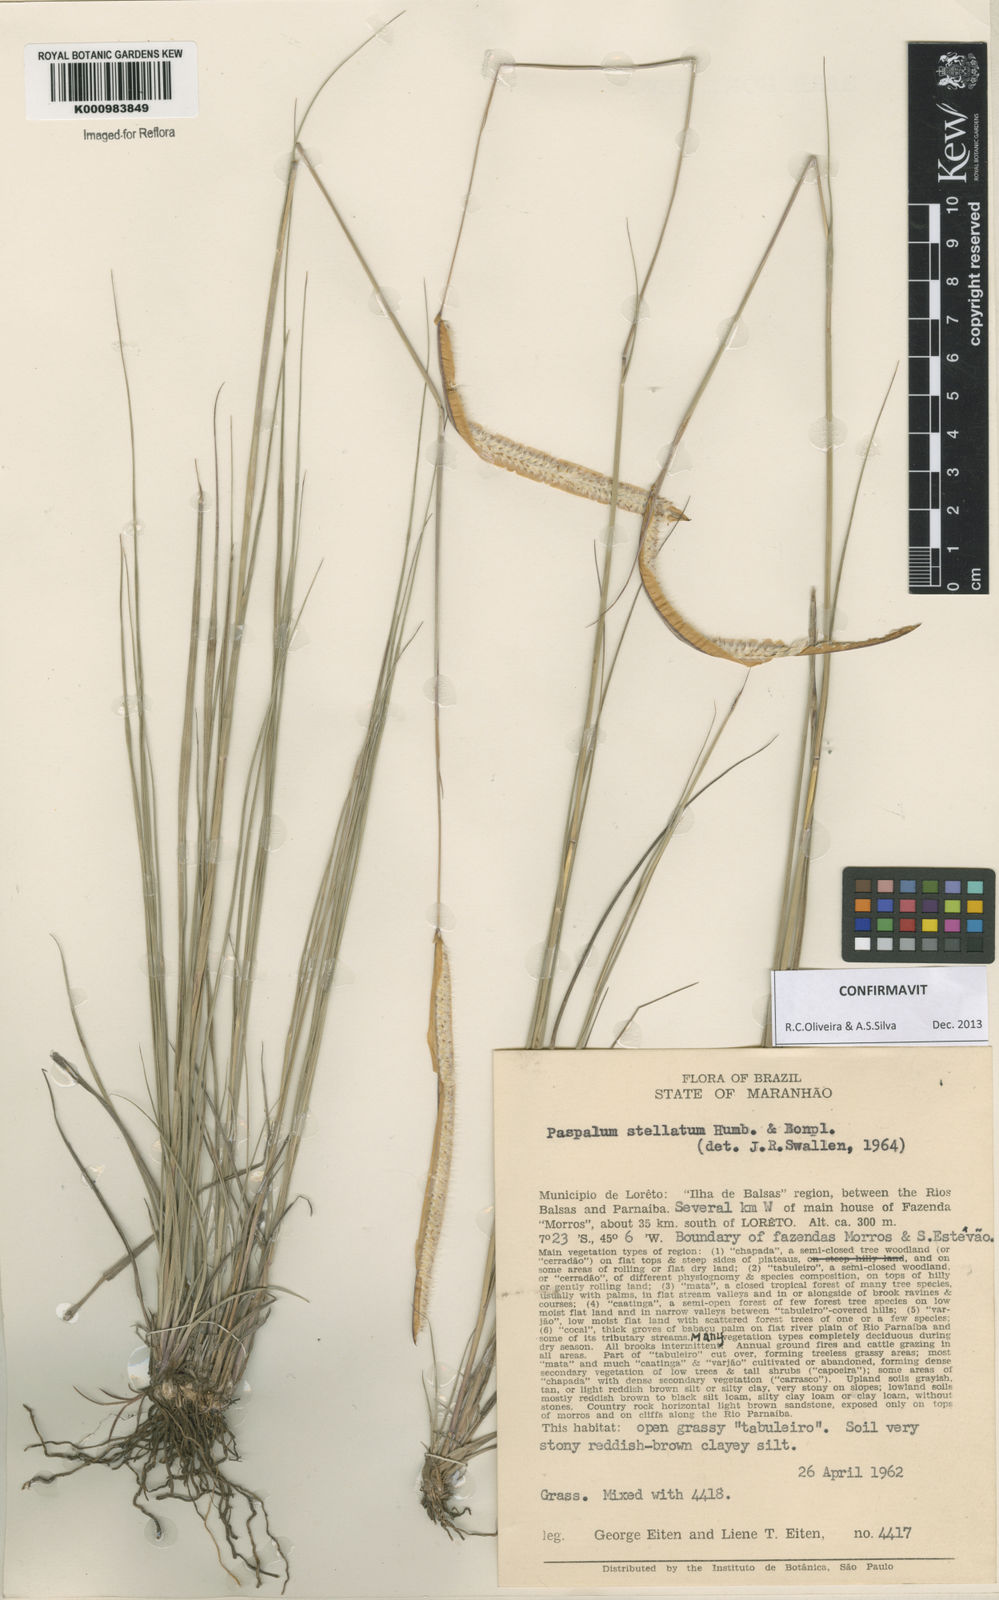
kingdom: Plantae
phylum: Tracheophyta
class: Liliopsida
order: Poales
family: Poaceae
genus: Paspalum
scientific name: Paspalum
